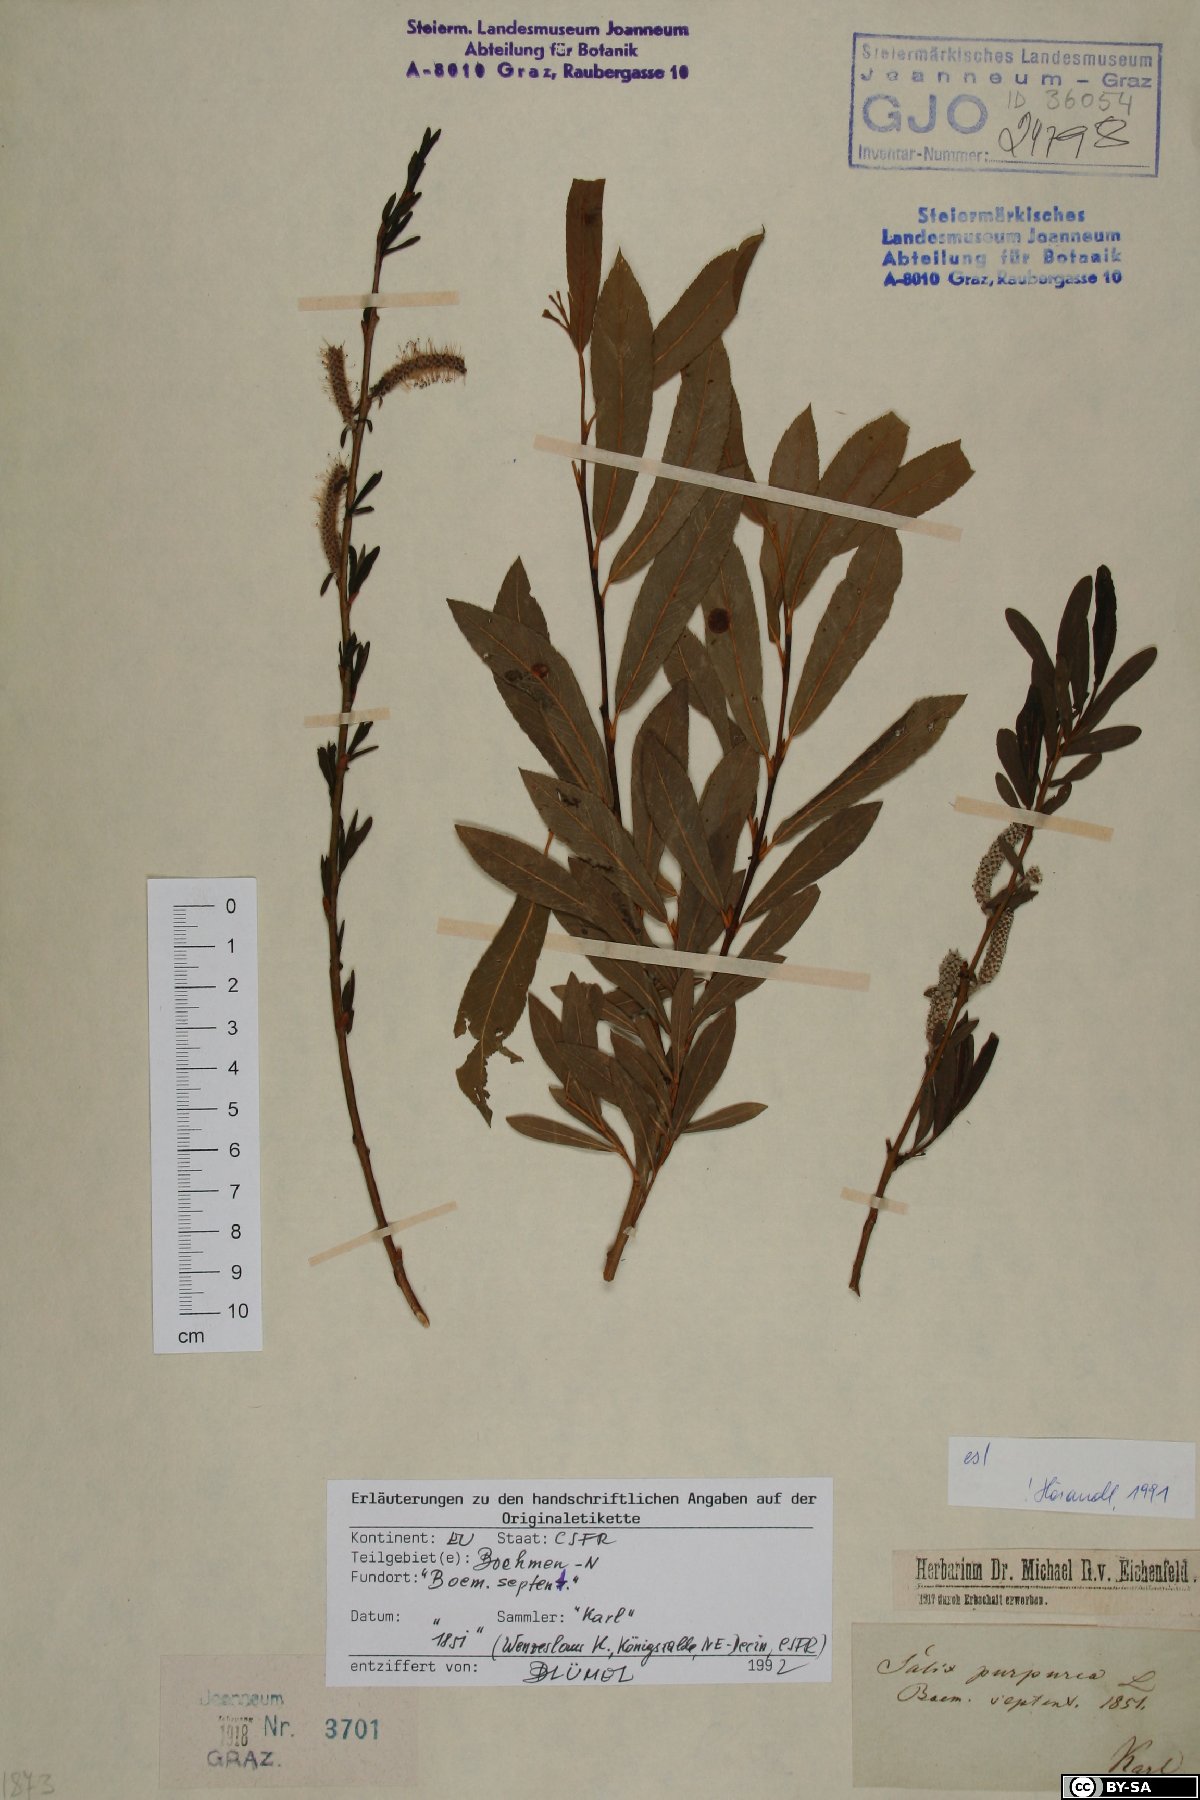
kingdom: Plantae
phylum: Tracheophyta
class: Magnoliopsida
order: Malpighiales
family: Salicaceae
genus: Salix
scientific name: Salix purpurea
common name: Purple willow
